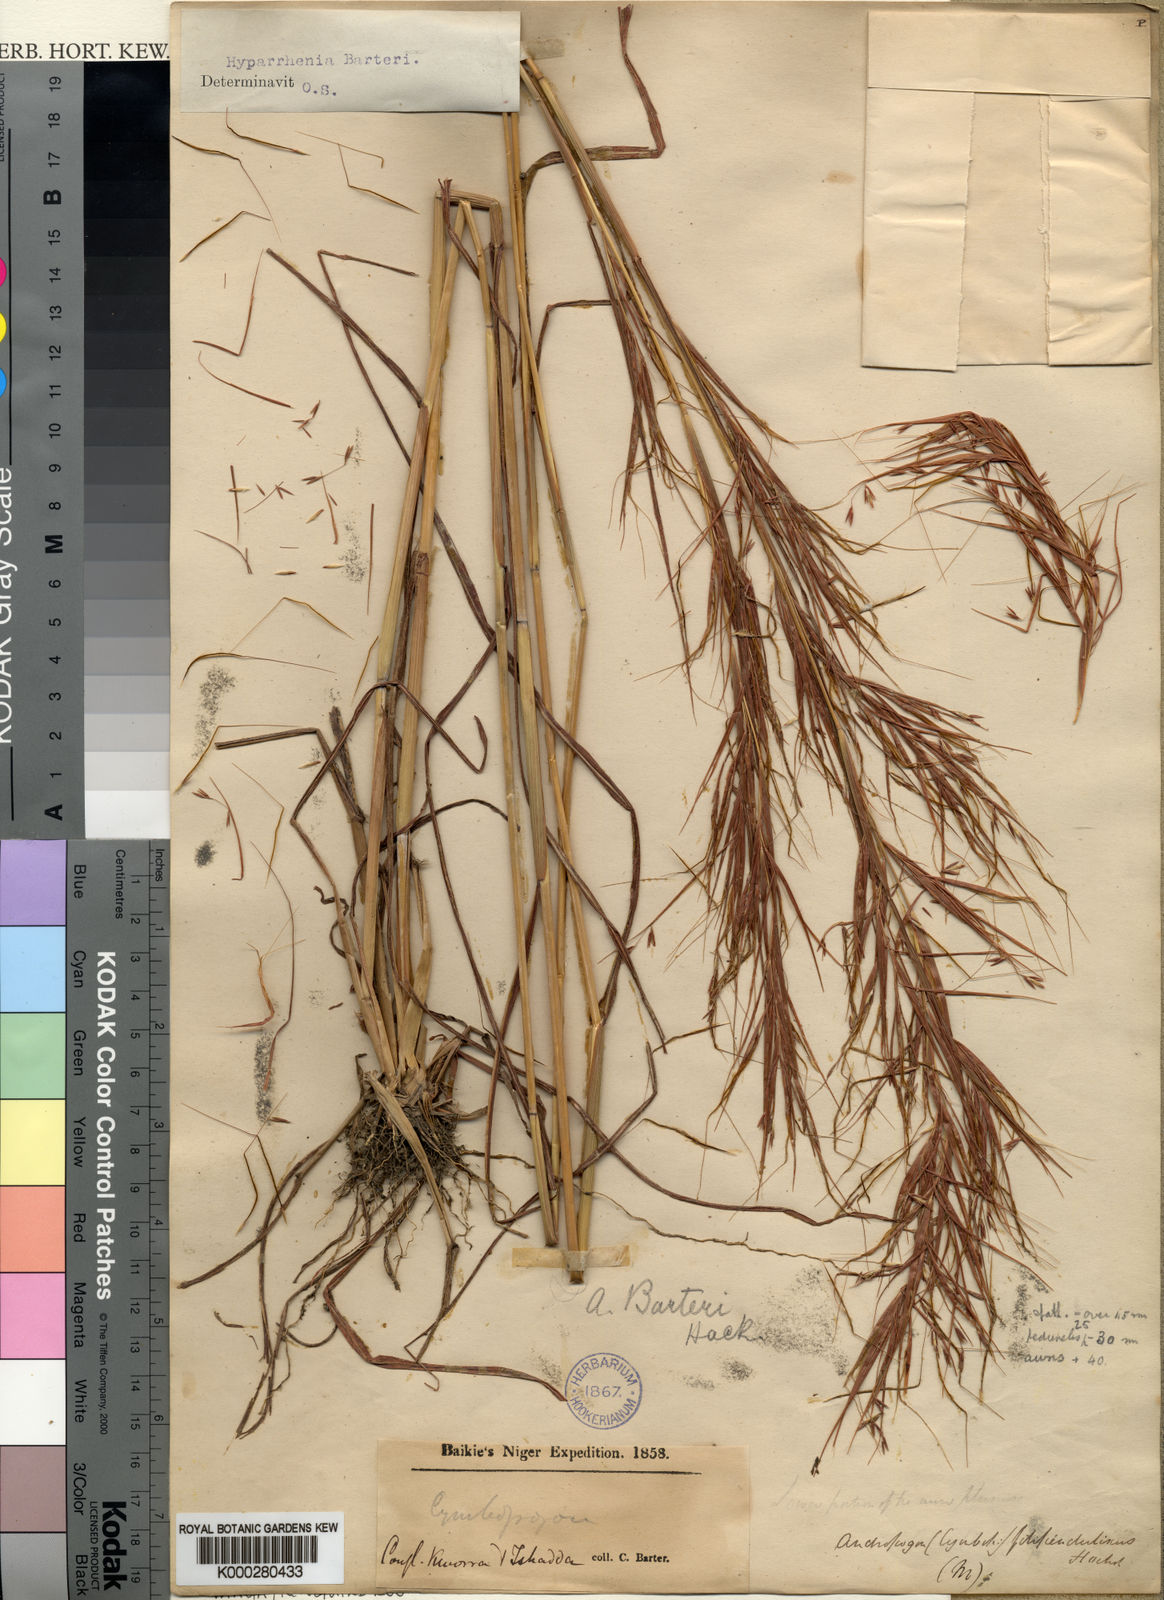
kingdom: Plantae
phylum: Tracheophyta
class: Liliopsida
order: Poales
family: Poaceae
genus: Hyparrhenia
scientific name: Hyparrhenia barteri
